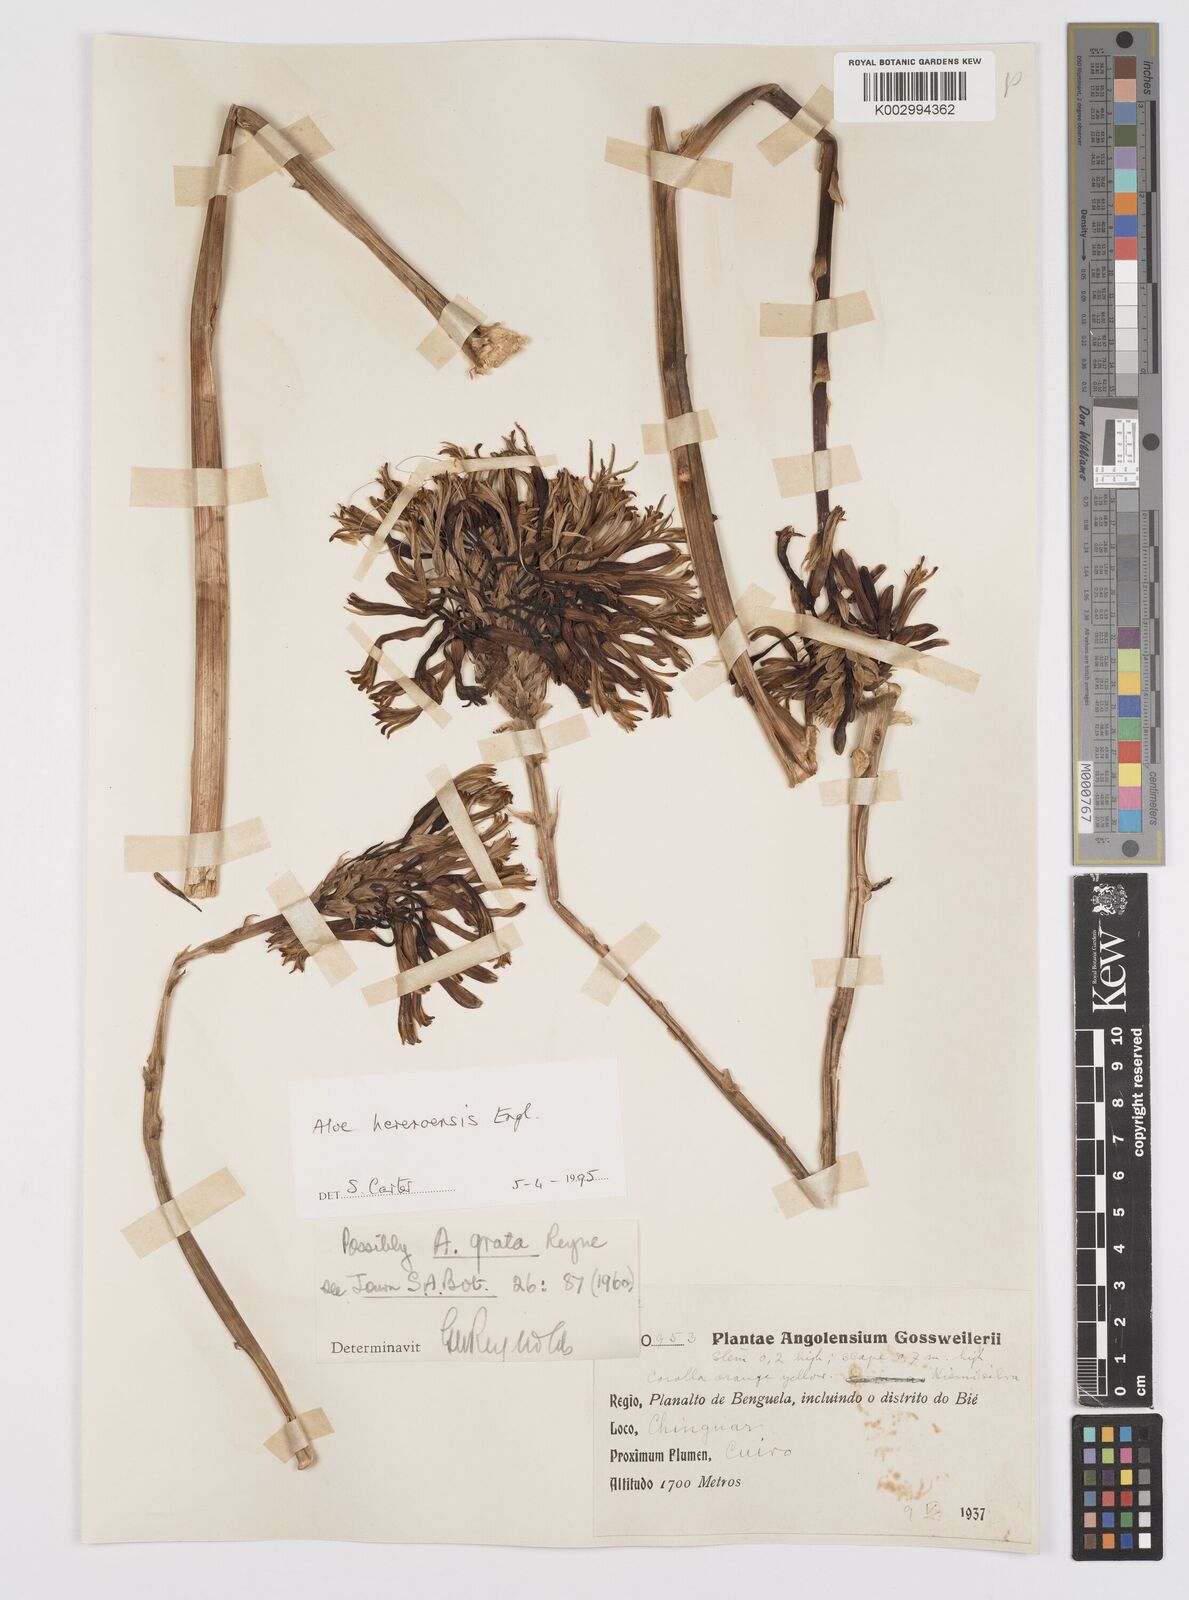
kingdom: Plantae
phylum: Tracheophyta
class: Liliopsida
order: Asparagales
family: Asphodelaceae
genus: Aloe
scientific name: Aloe hereroensis
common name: Herero aloe
